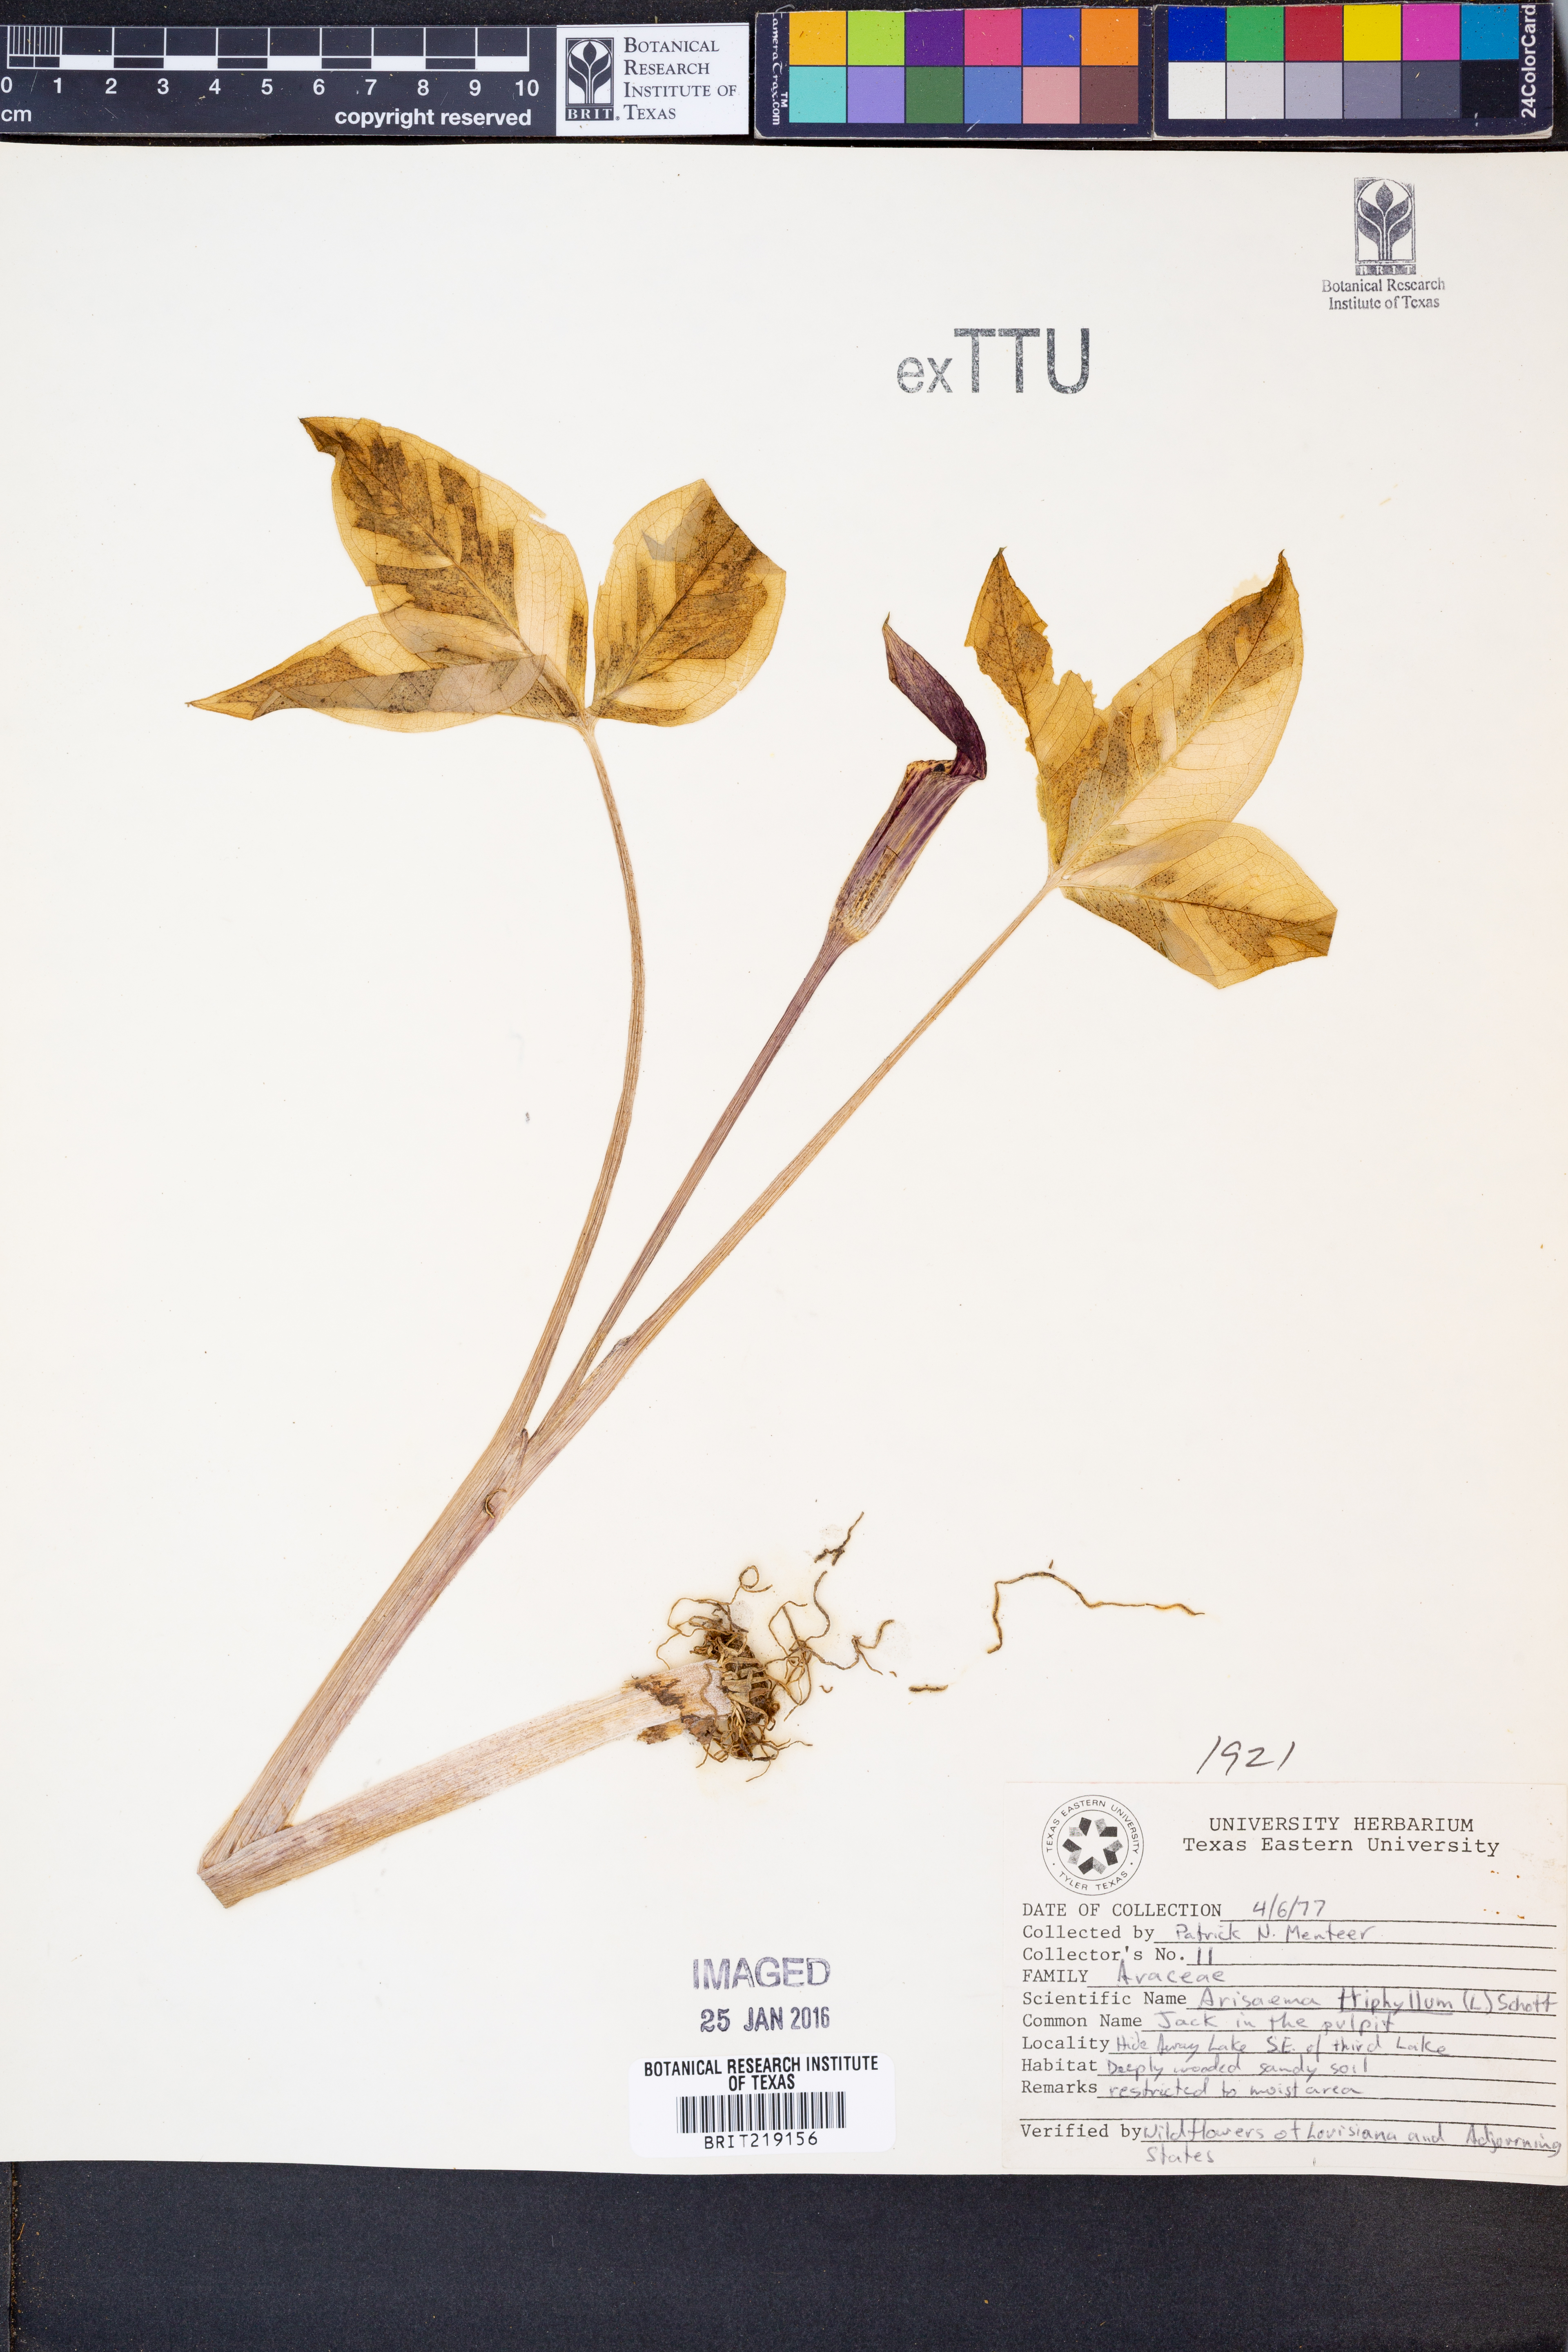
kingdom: Plantae
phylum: Tracheophyta
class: Liliopsida
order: Alismatales
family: Araceae
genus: Arisaema
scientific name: Arisaema triphyllum
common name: Jack-in-the-pulpit
